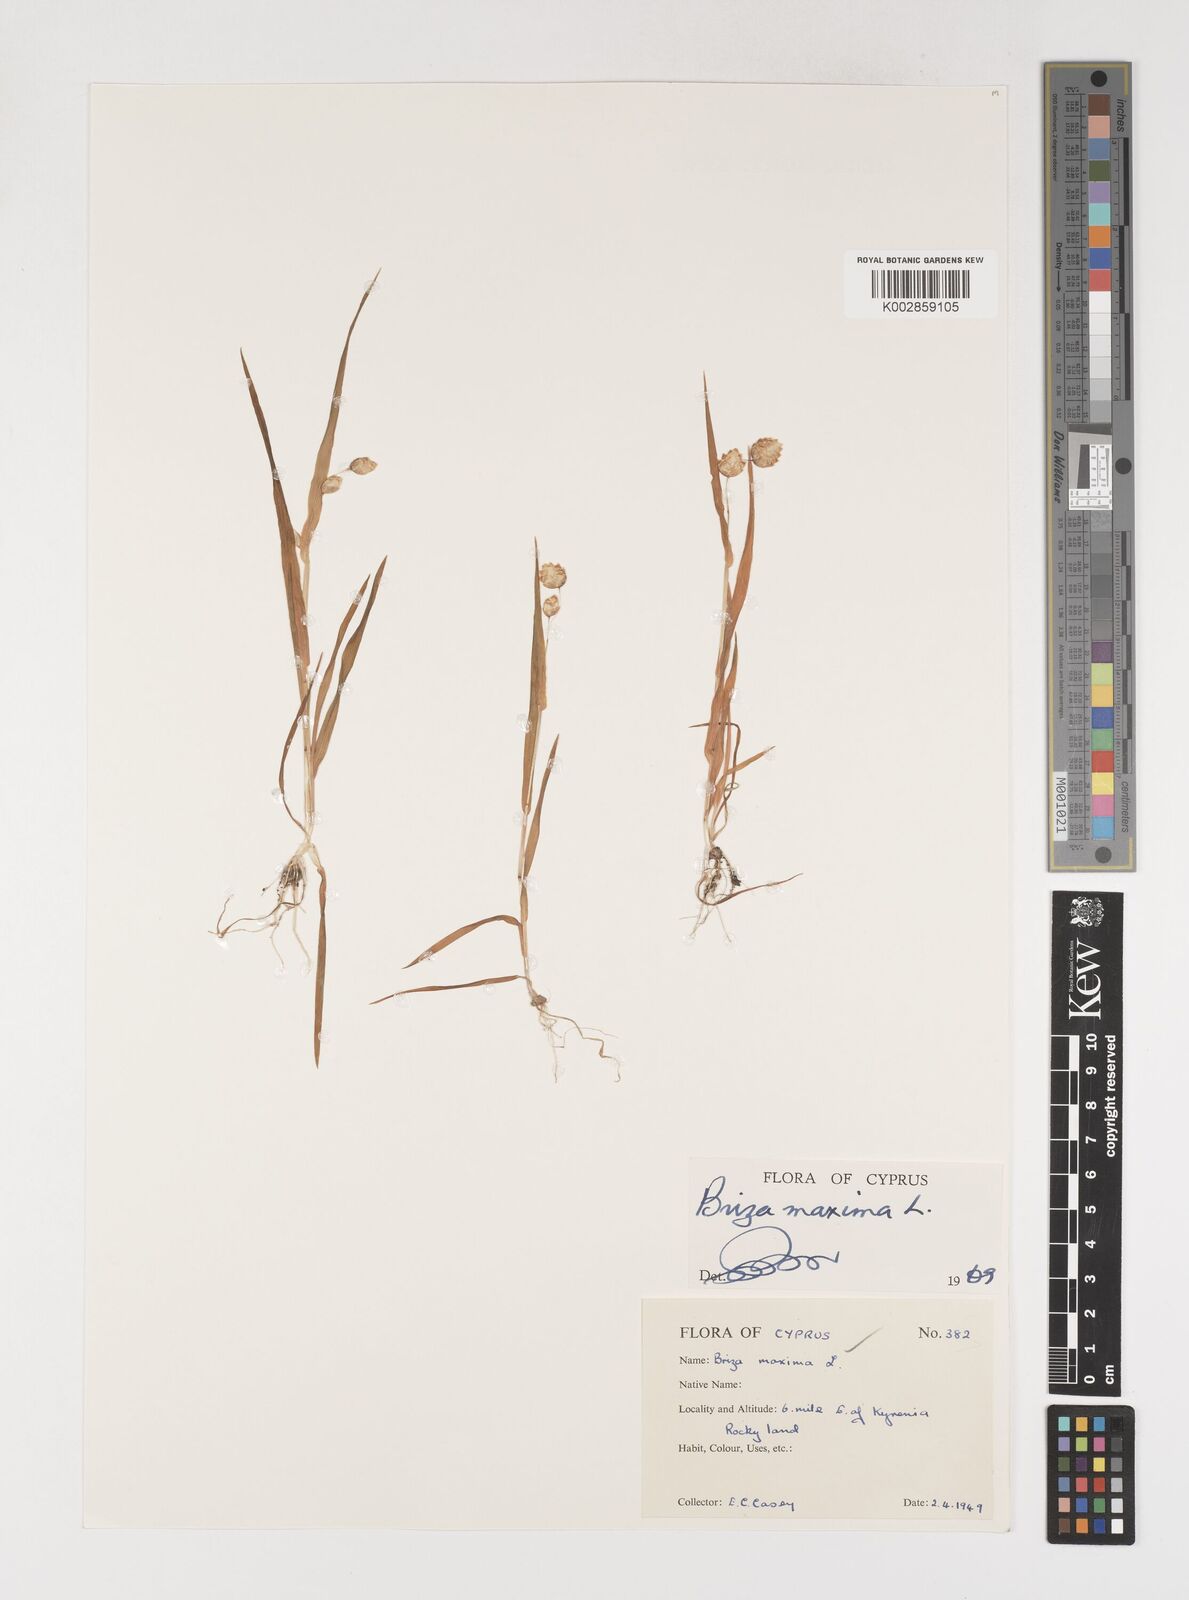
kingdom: Plantae
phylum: Tracheophyta
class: Liliopsida
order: Poales
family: Poaceae
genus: Briza
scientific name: Briza maxima
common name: Big quakinggrass
